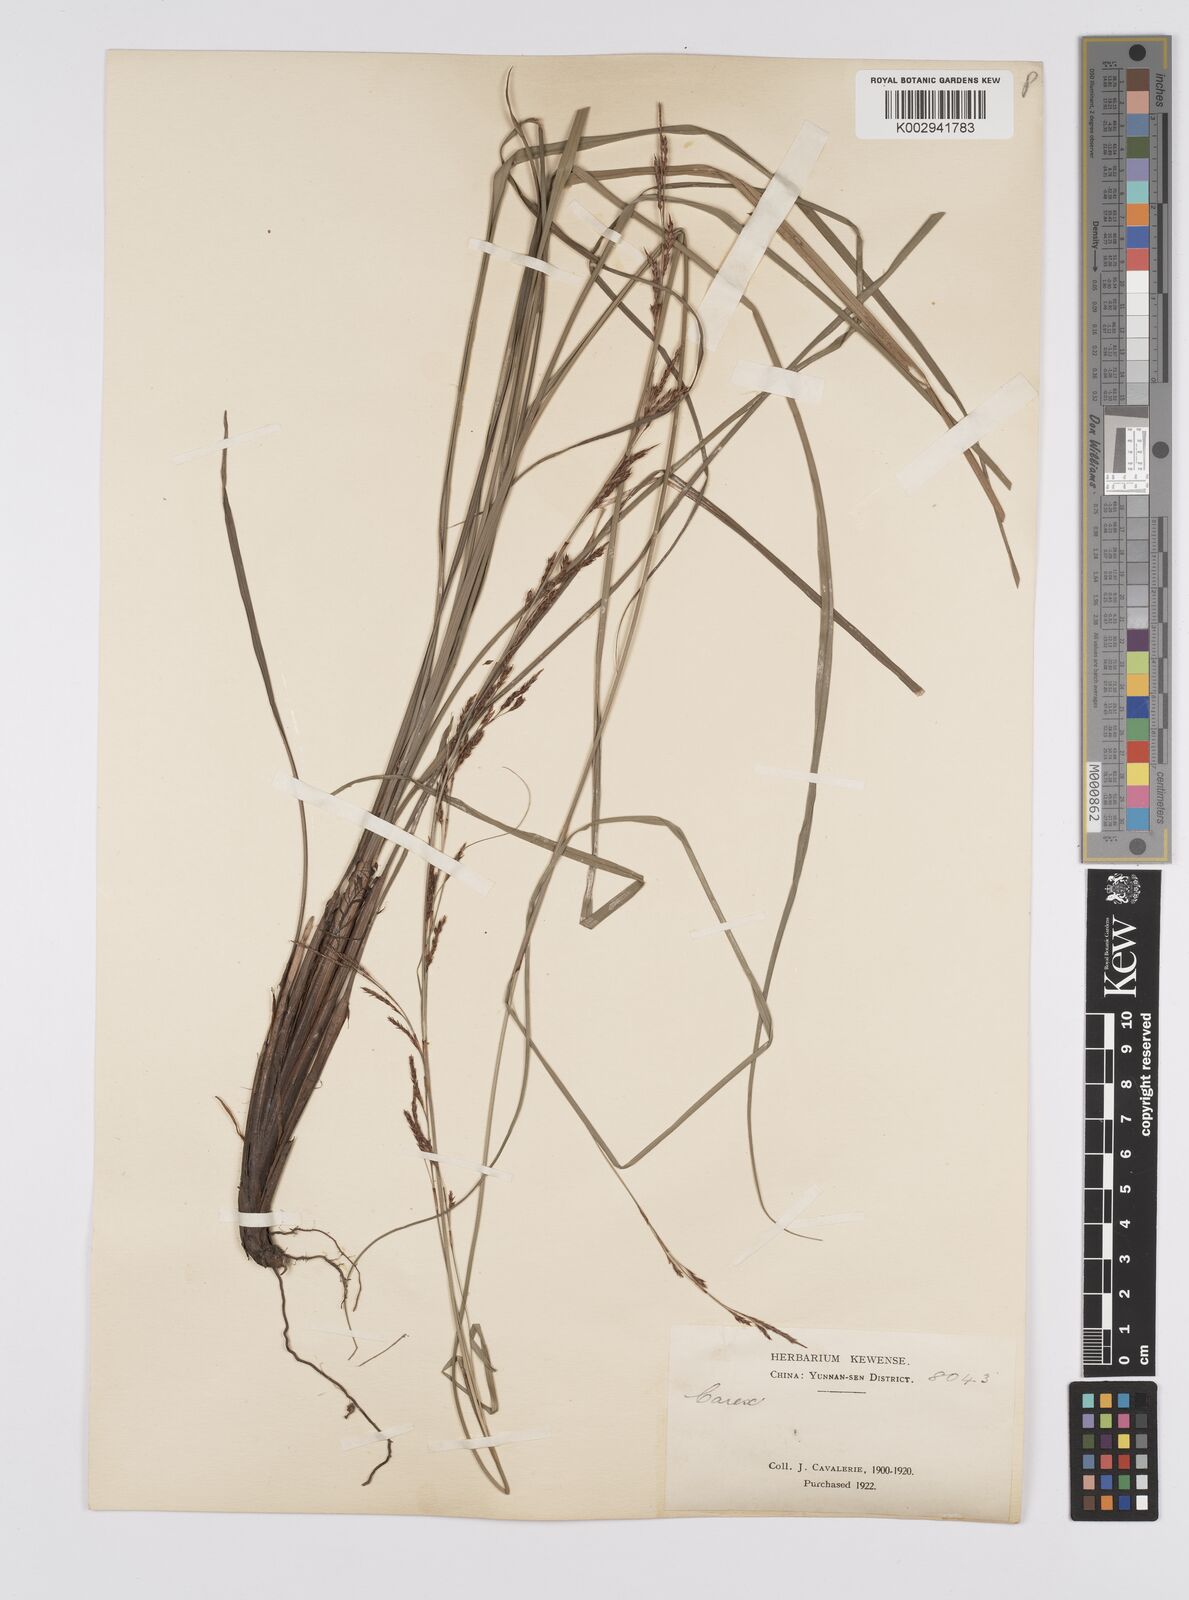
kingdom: Plantae
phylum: Tracheophyta
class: Liliopsida
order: Poales
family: Cyperaceae
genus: Carex
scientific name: Carex brunnea
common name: Greater brown sedge
